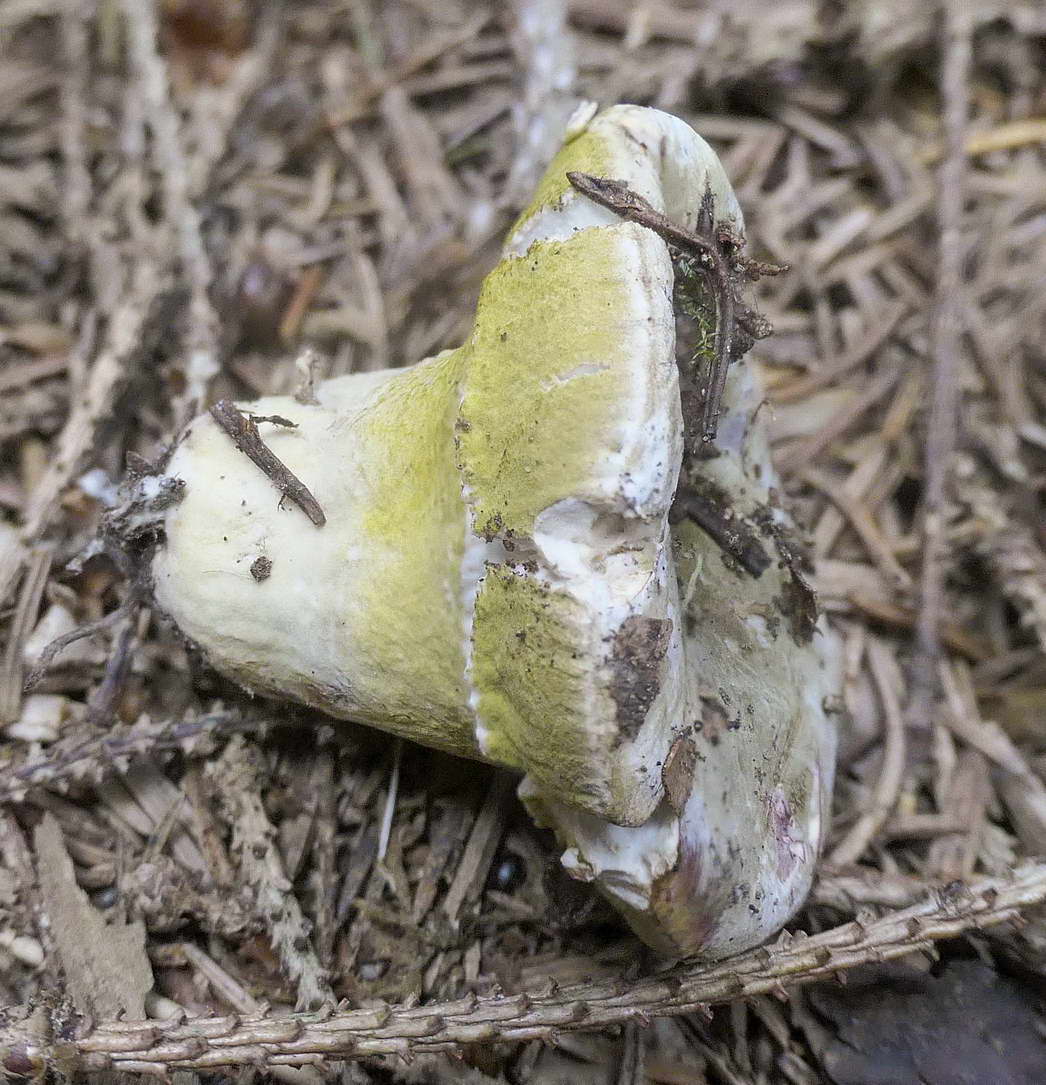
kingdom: Fungi
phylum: Ascomycota
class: Sordariomycetes
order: Hypocreales
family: Hypocreaceae
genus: Hypomyces
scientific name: Hypomyces luteovirens
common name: gulgrøn snylteskorpe
